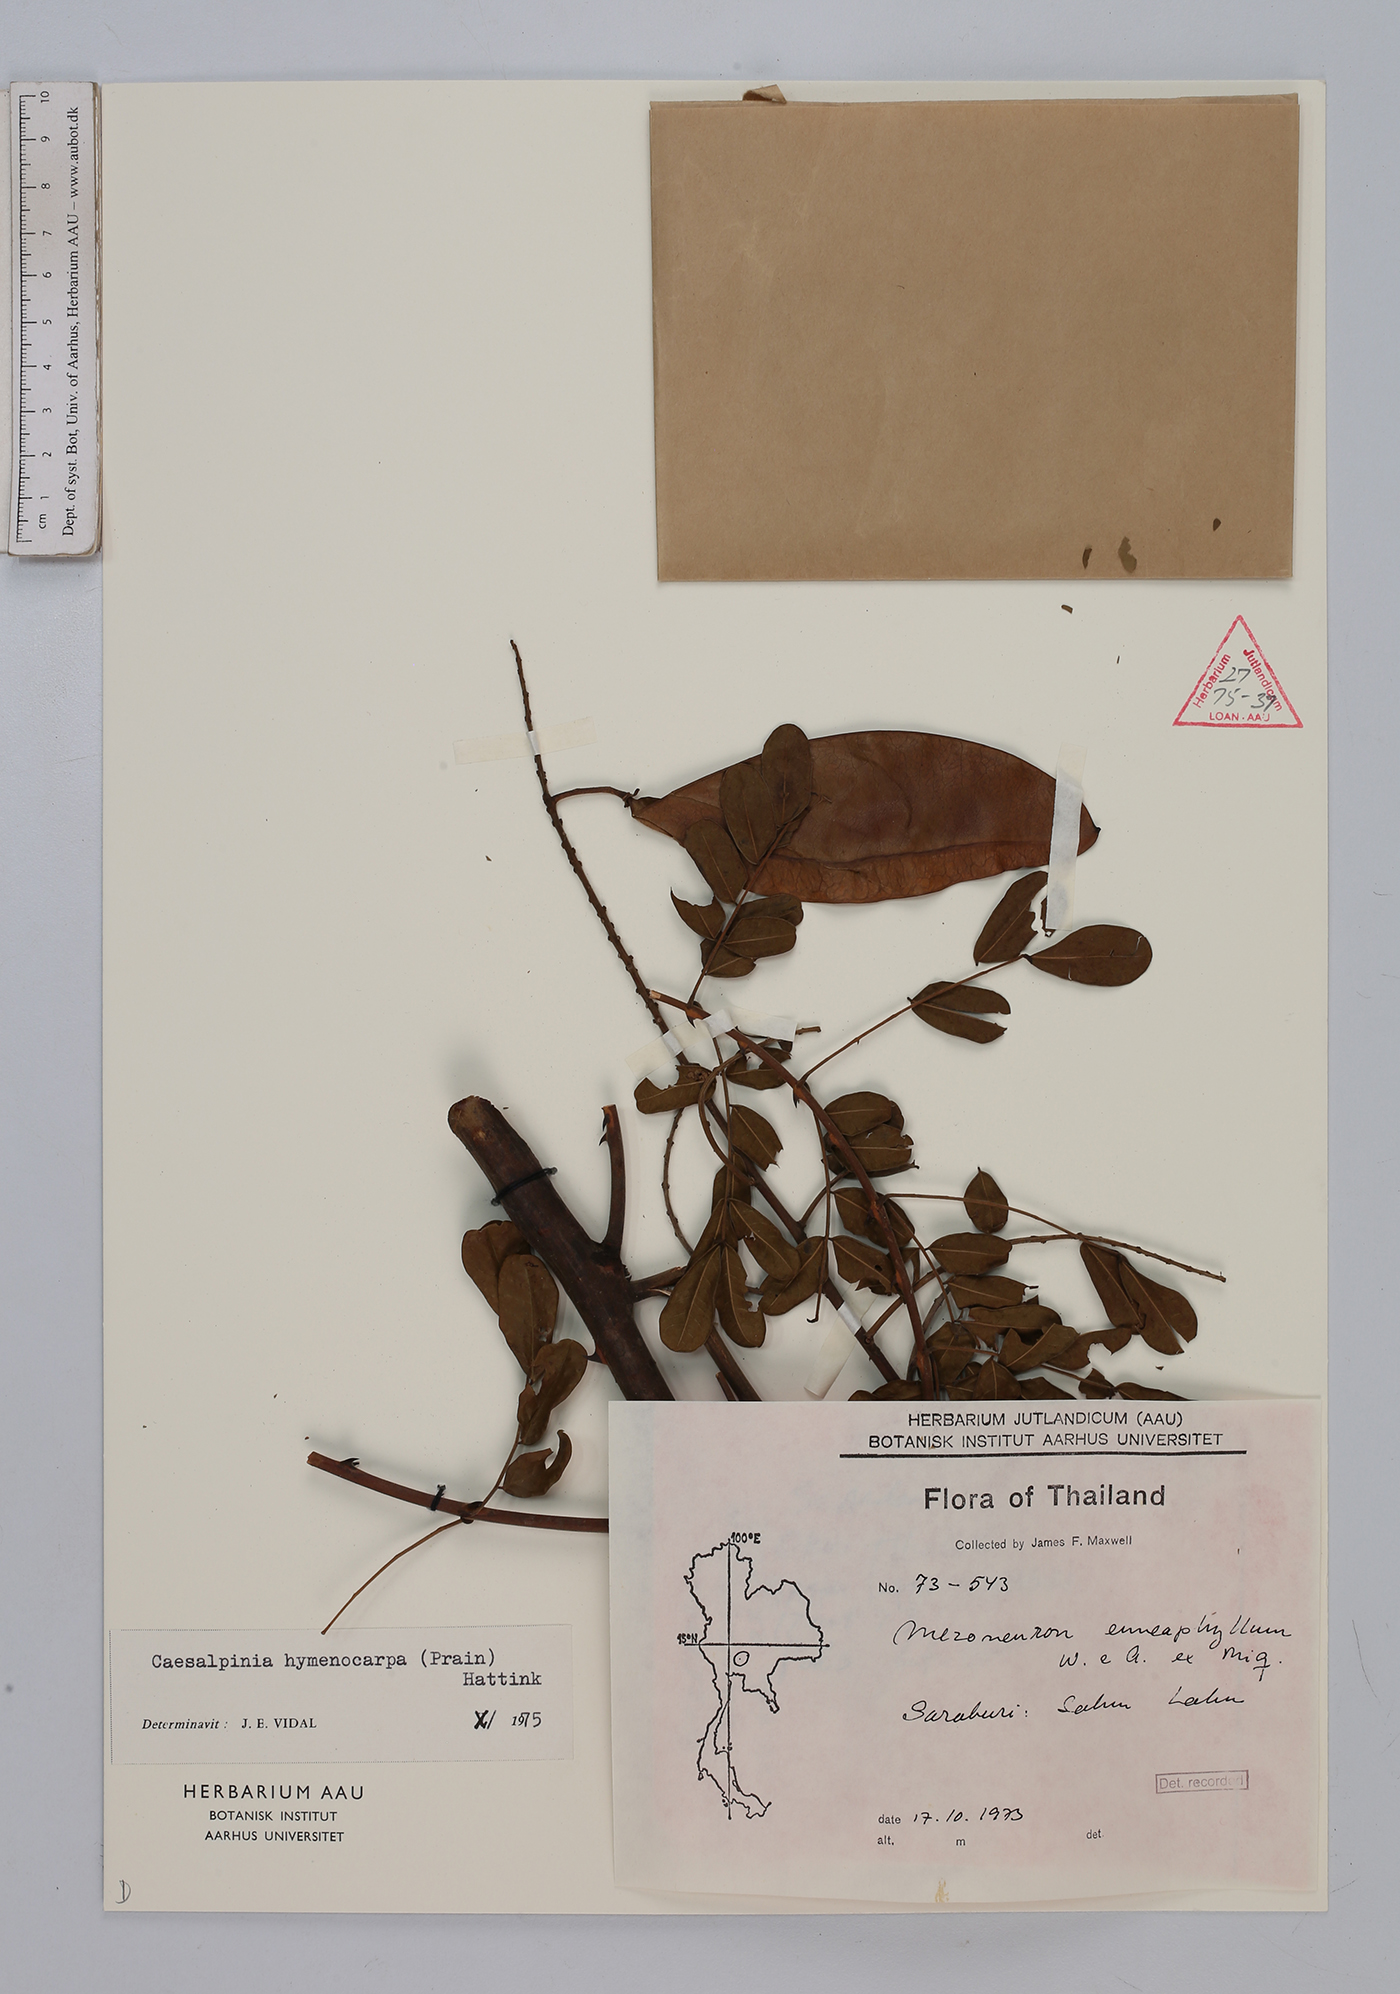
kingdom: Plantae
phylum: Tracheophyta
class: Magnoliopsida
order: Fabales
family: Fabaceae
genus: Mezoneuron
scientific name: Mezoneuron hymenocarpum
